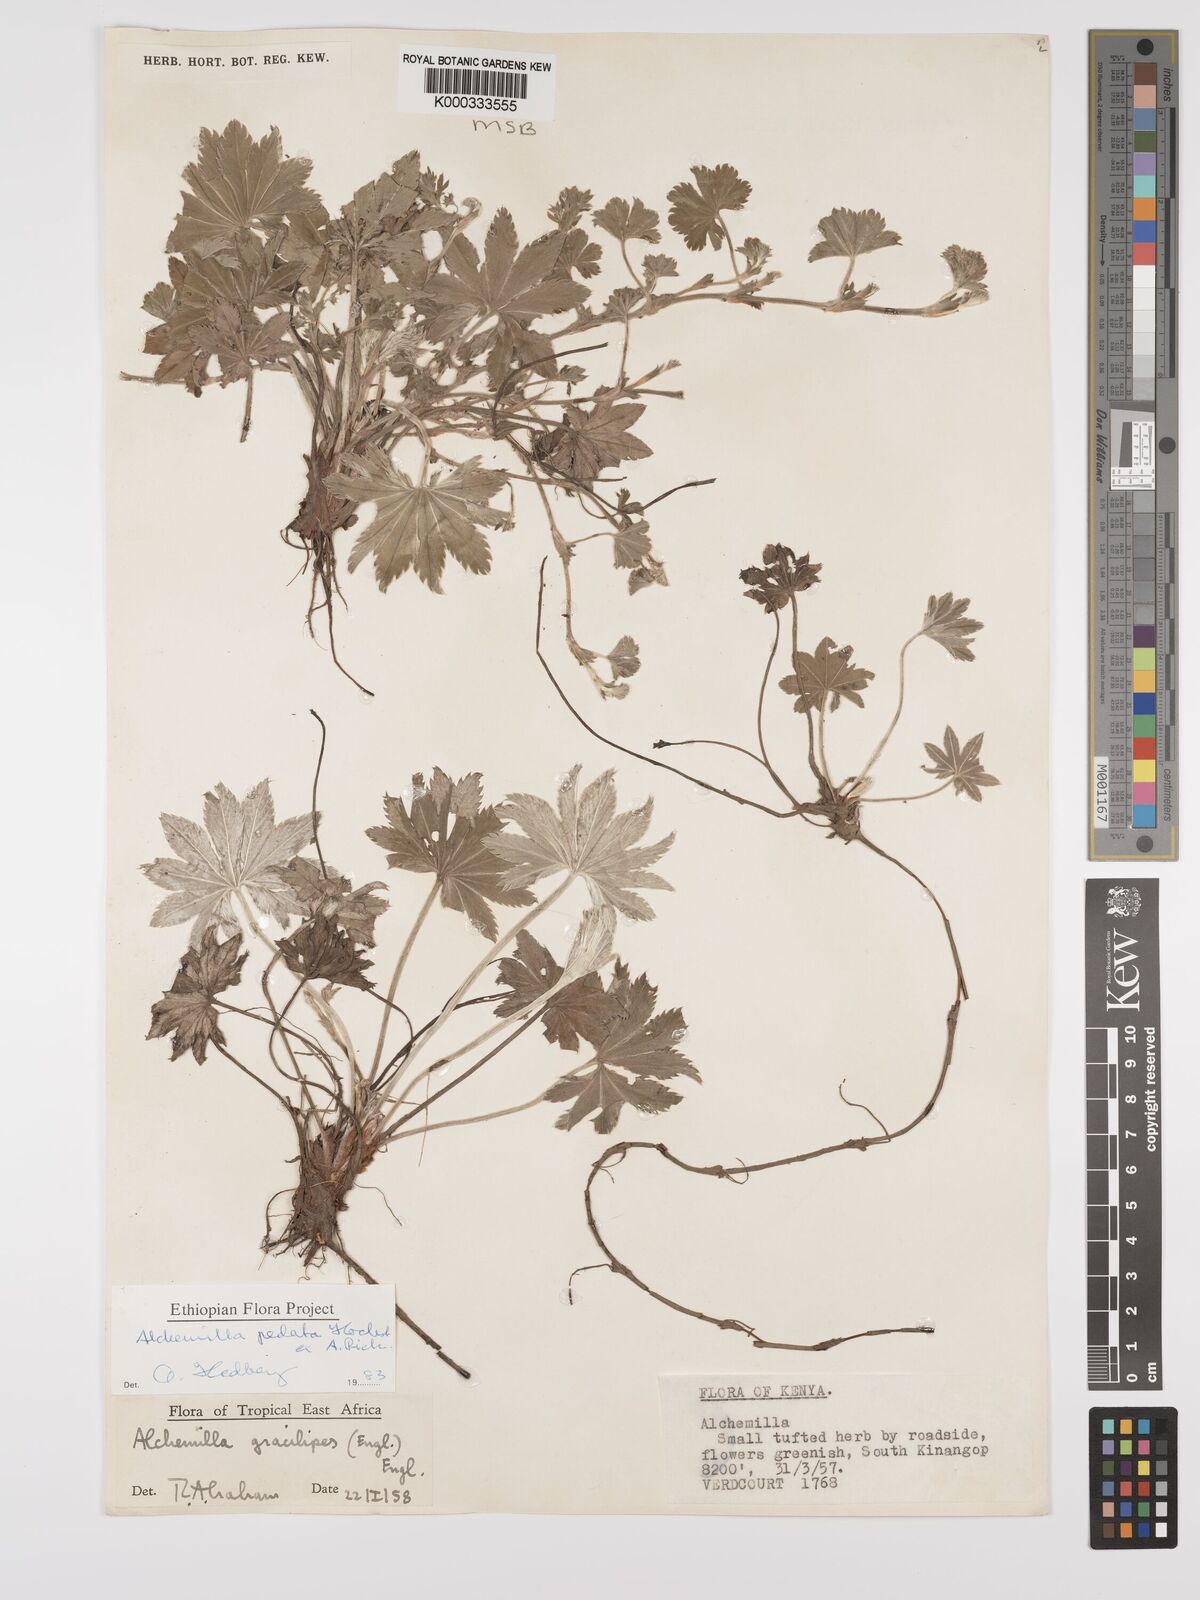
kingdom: Plantae
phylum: Tracheophyta
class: Magnoliopsida
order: Rosales
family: Rosaceae
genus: Alchemilla
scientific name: Alchemilla pedata
